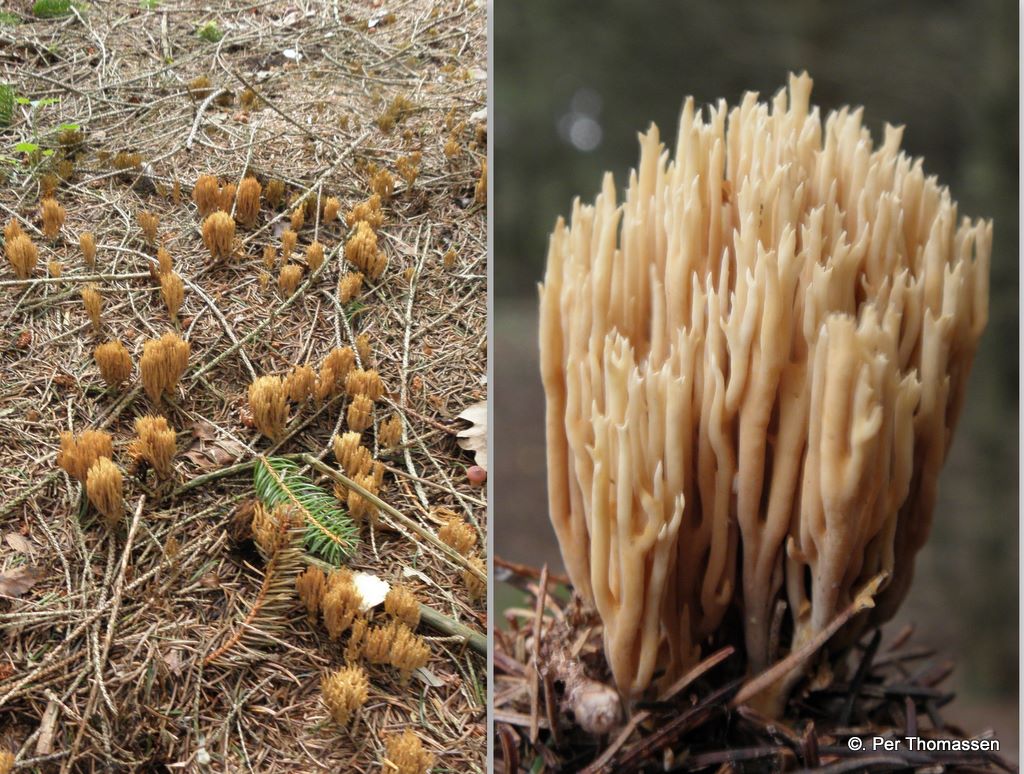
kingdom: Fungi
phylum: Basidiomycota
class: Agaricomycetes
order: Gomphales
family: Gomphaceae
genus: Phaeoclavulina
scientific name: Phaeoclavulina eumorpha
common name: gran-koralsvamp
